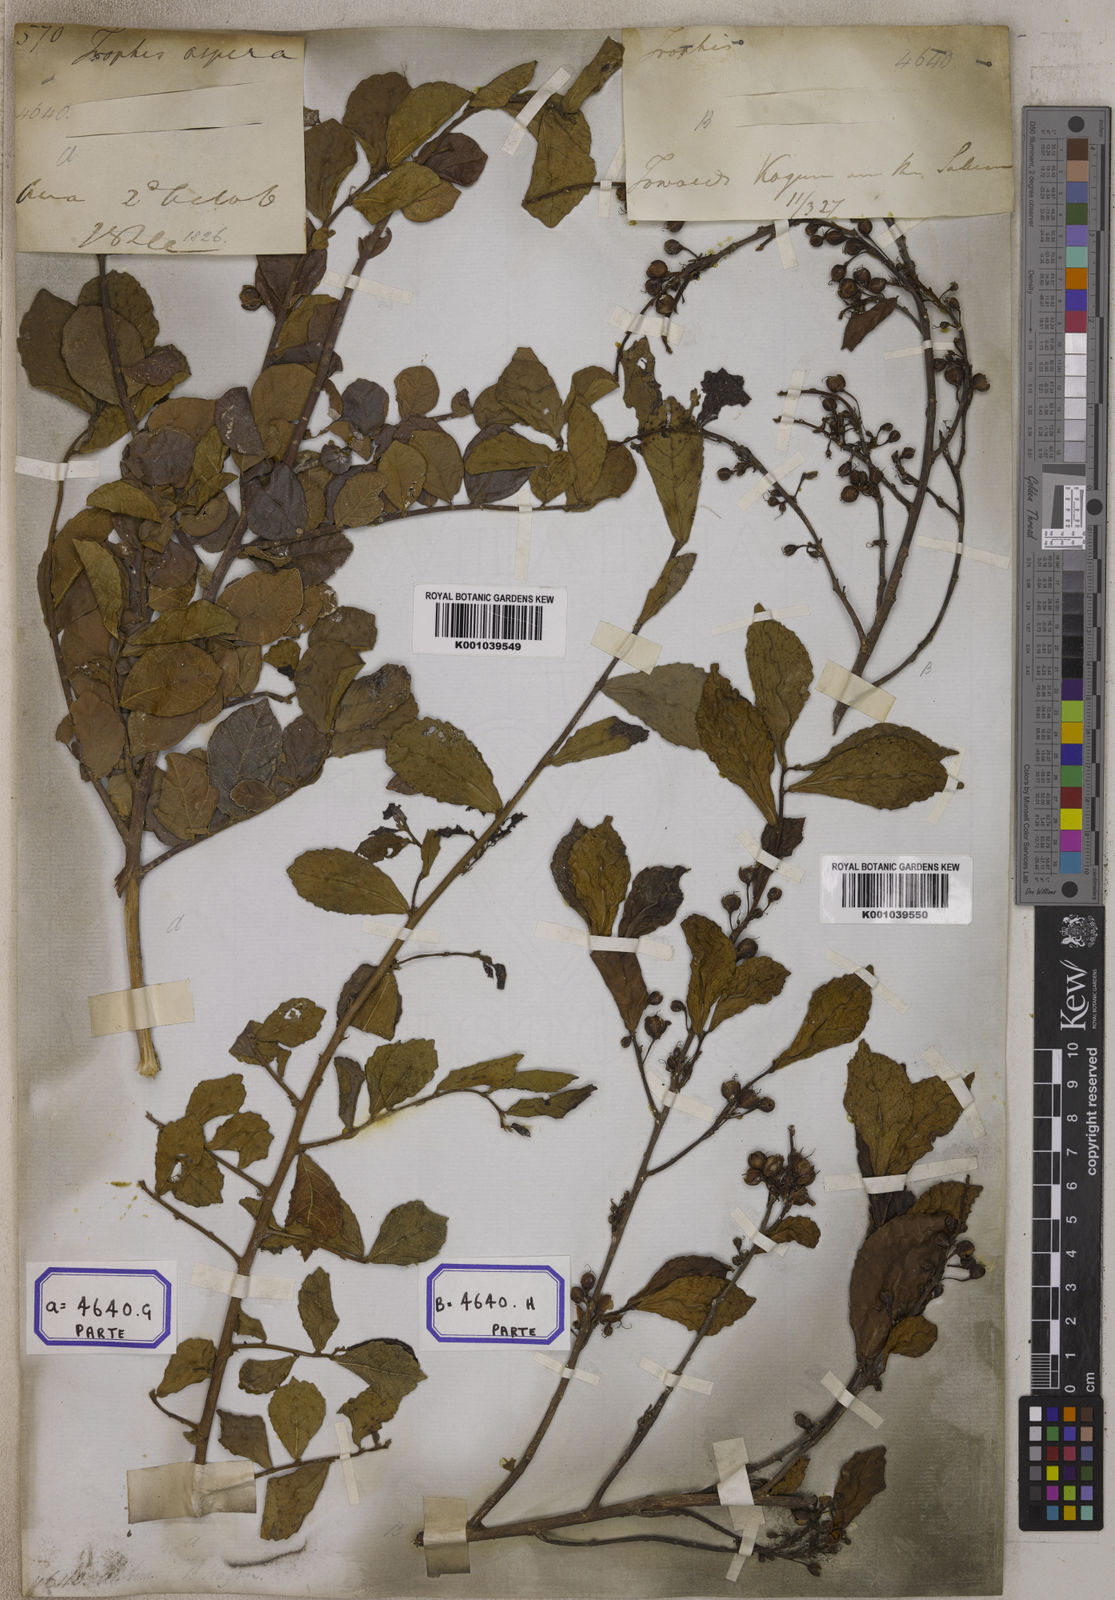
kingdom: Plantae
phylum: Tracheophyta
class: Magnoliopsida
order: Rosales
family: Moraceae
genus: Streblus
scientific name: Streblus asper
